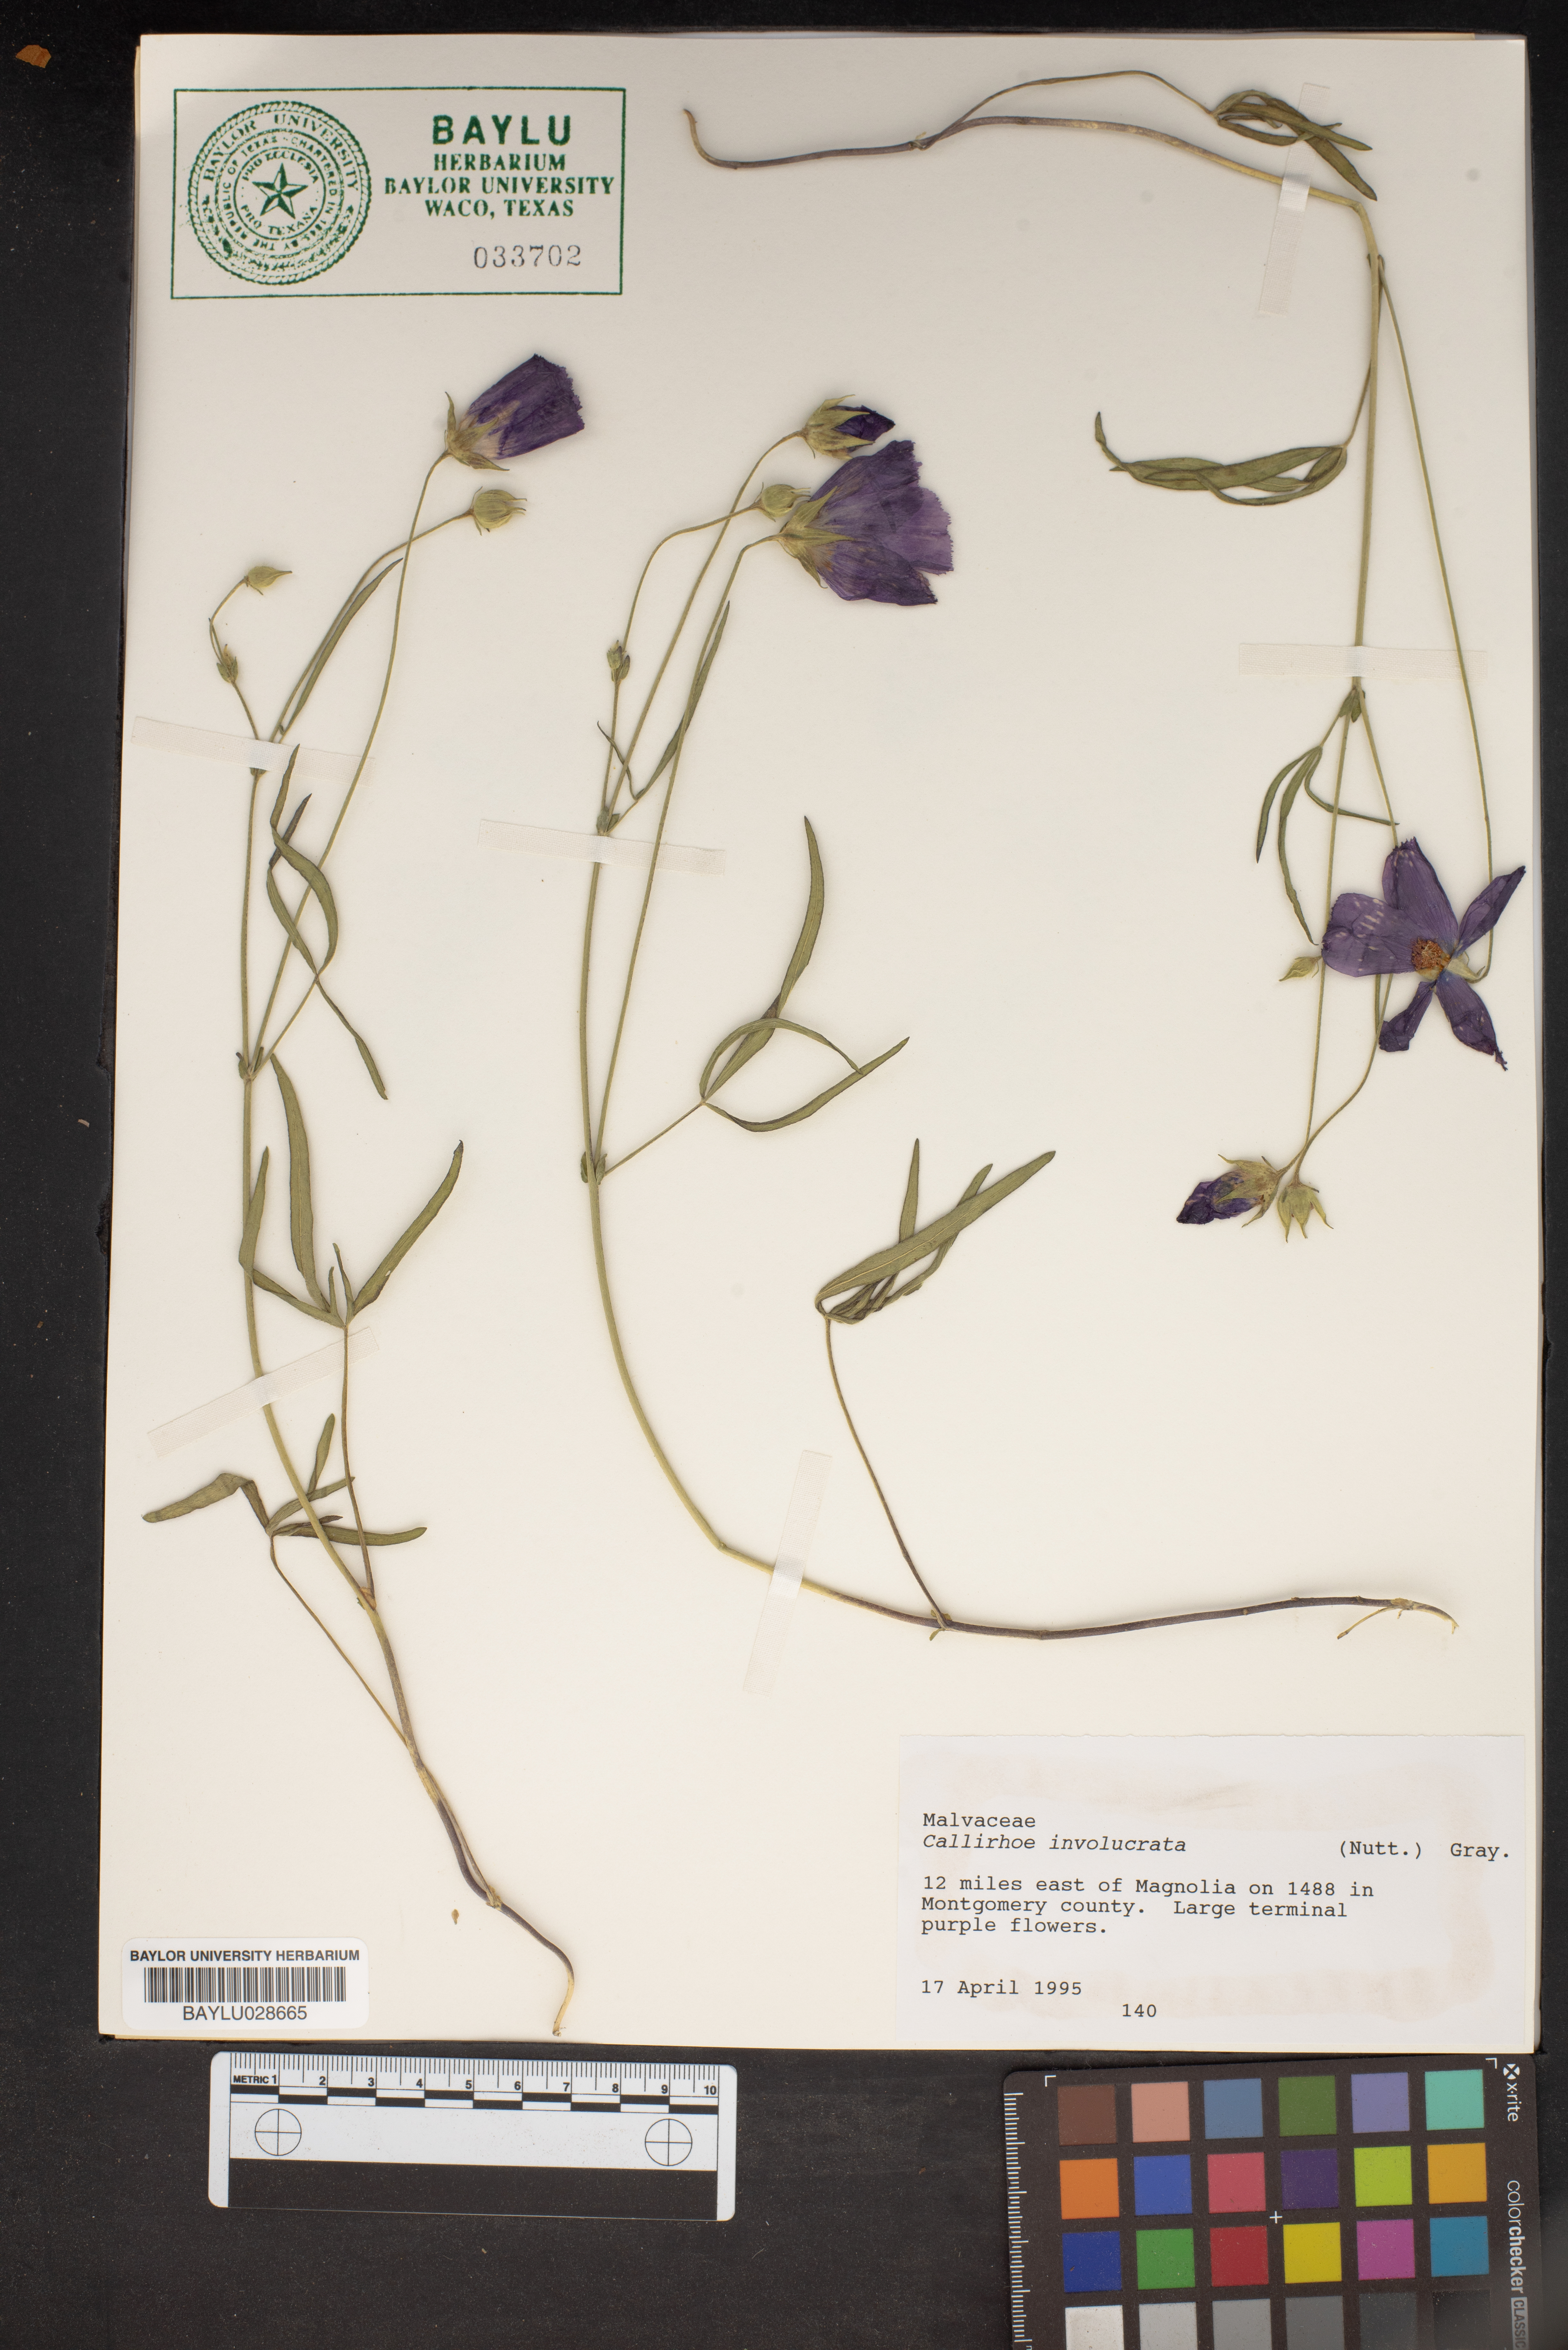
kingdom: Plantae
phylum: Tracheophyta
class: Magnoliopsida
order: Malvales
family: Malvaceae
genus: Callirhoe
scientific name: Callirhoe involucrata
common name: Purple poppy-mallow
